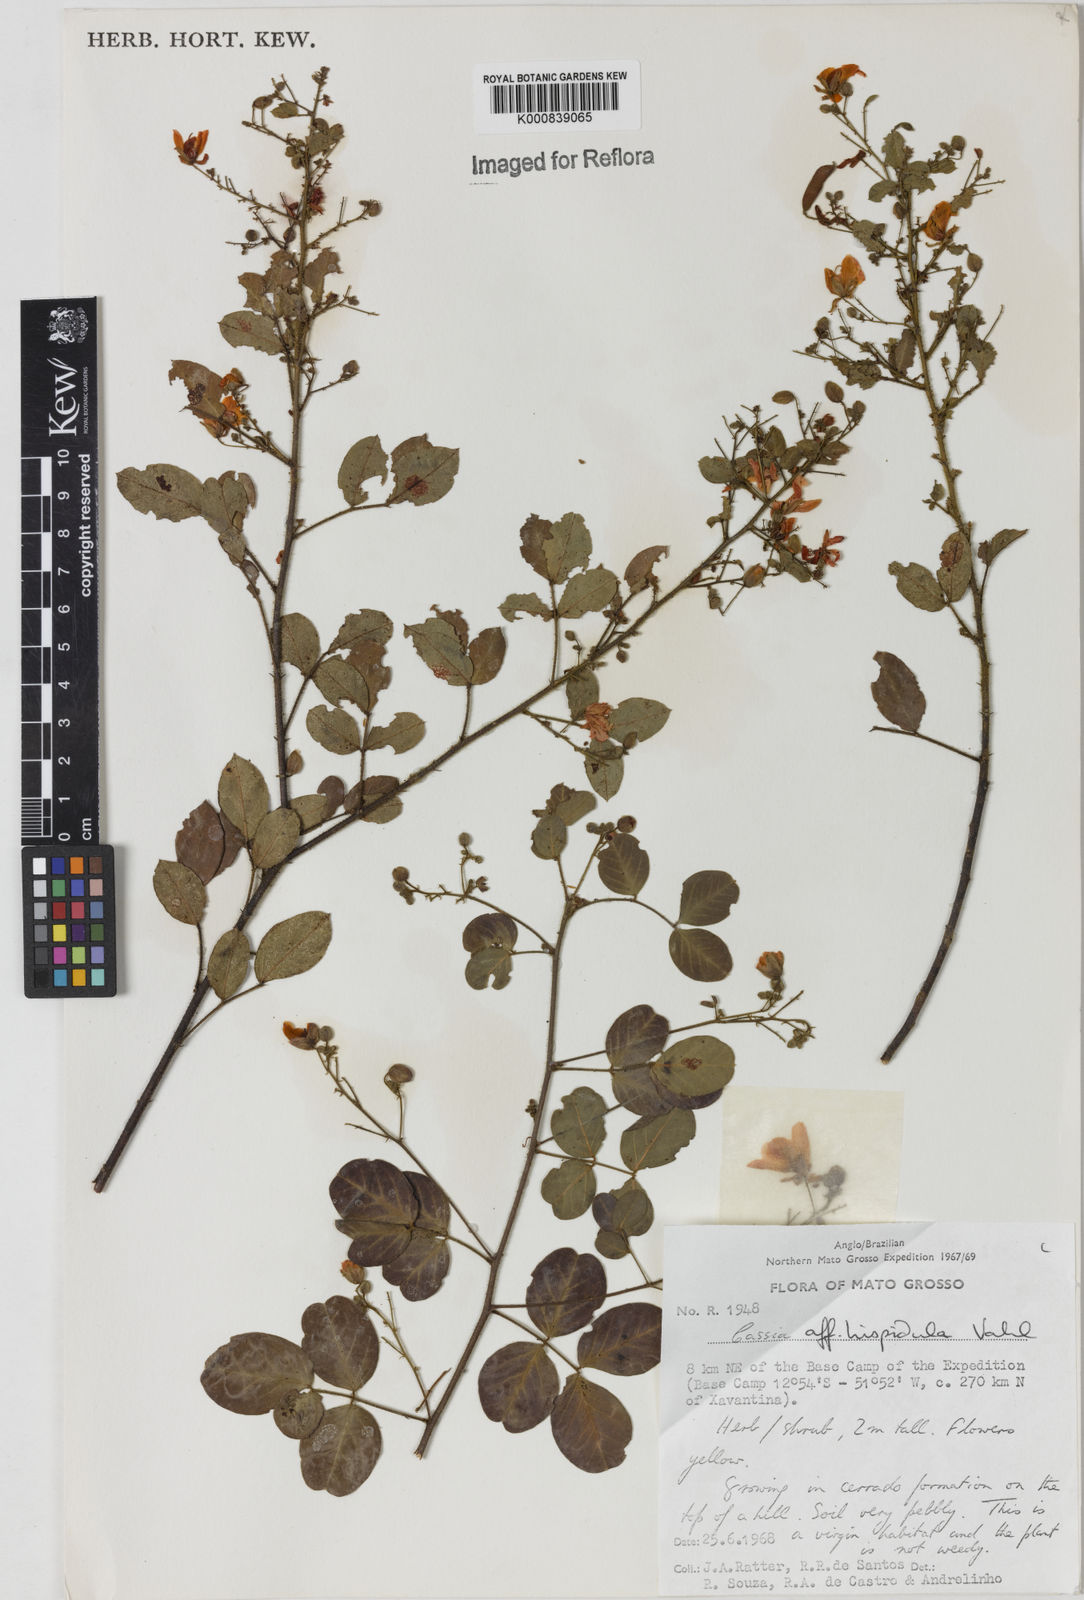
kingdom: Plantae
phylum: Tracheophyta
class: Magnoliopsida
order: Fabales
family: Fabaceae
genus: Chamaecrista
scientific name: Chamaecrista hispidula
